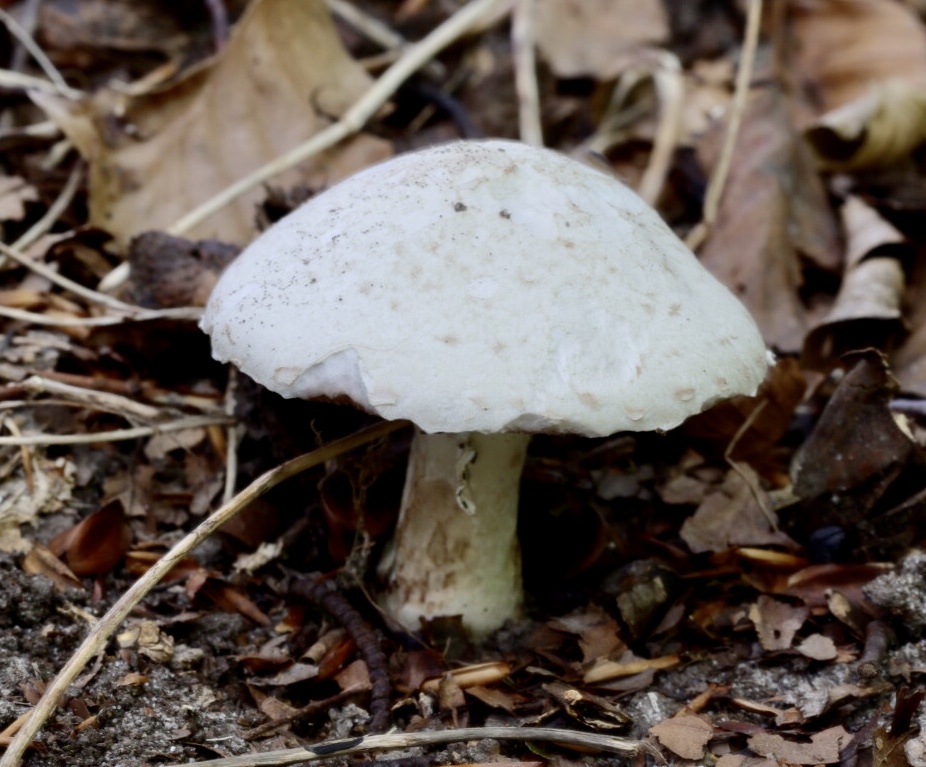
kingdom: Fungi
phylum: Basidiomycota
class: Agaricomycetes
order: Agaricales
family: Agaricaceae
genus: Agaricus
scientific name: Agaricus depauperatus
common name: finskællet champignon
